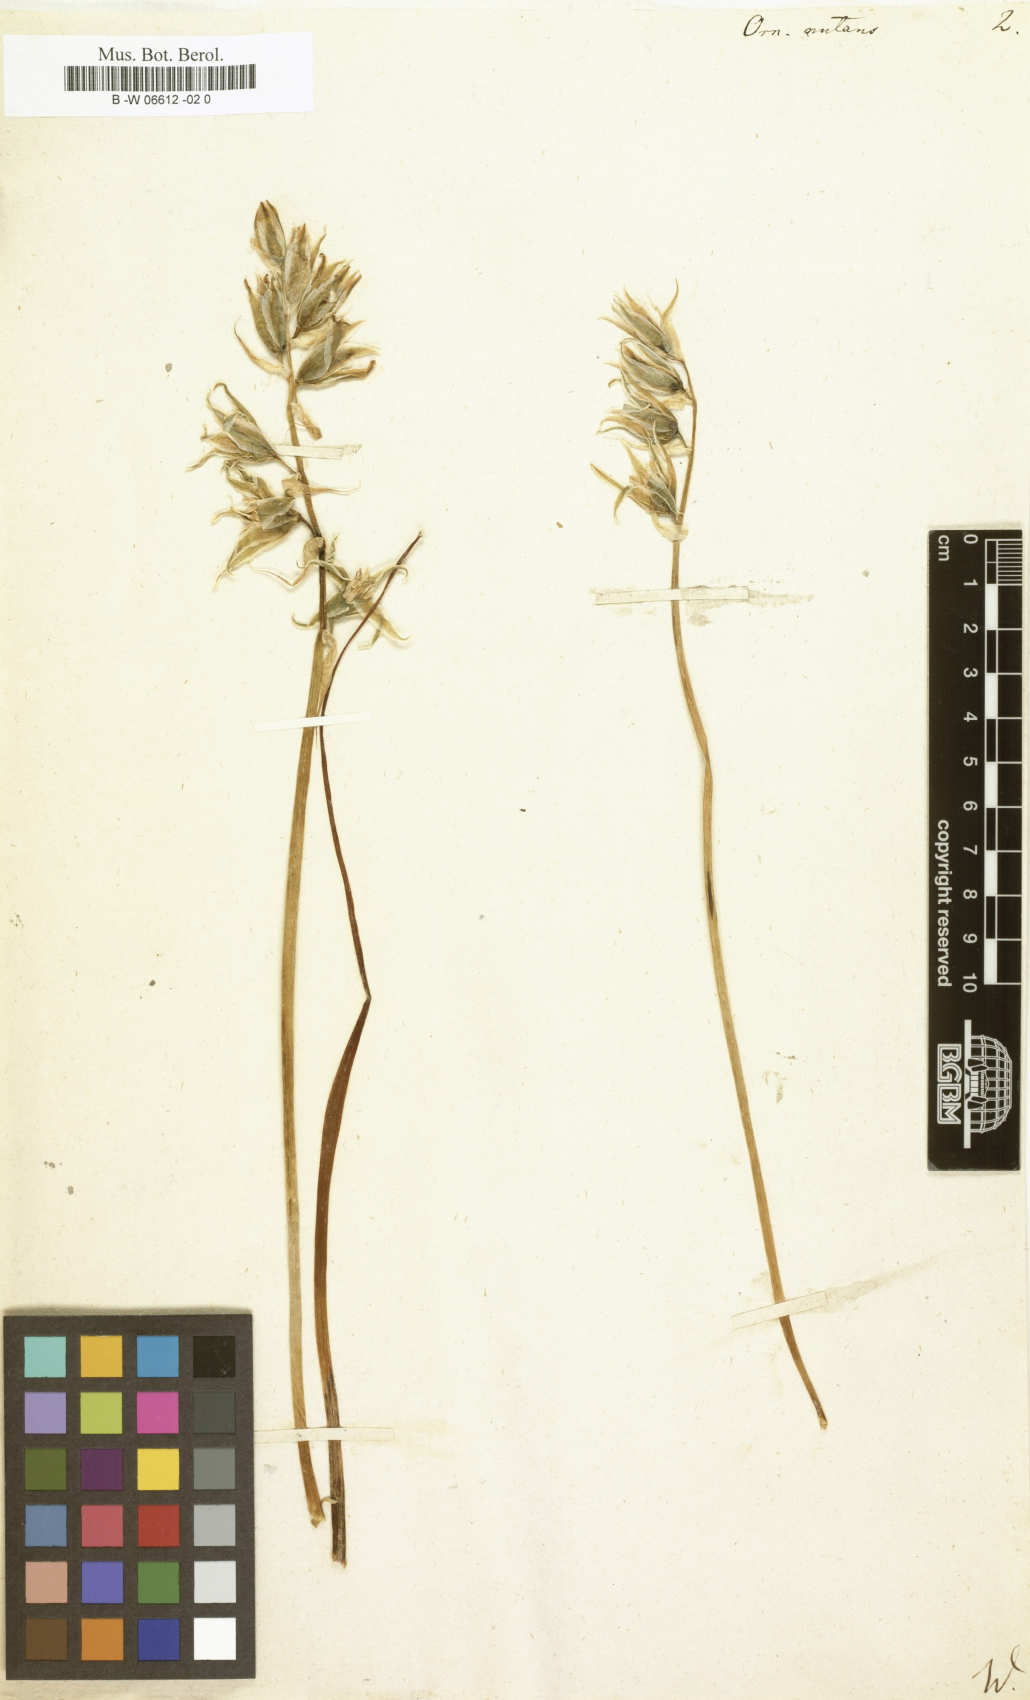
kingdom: Plantae
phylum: Tracheophyta
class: Liliopsida
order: Asparagales
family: Asparagaceae
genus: Ornithogalum
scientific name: Ornithogalum nutans
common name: Drooping star-of-bethlehem
